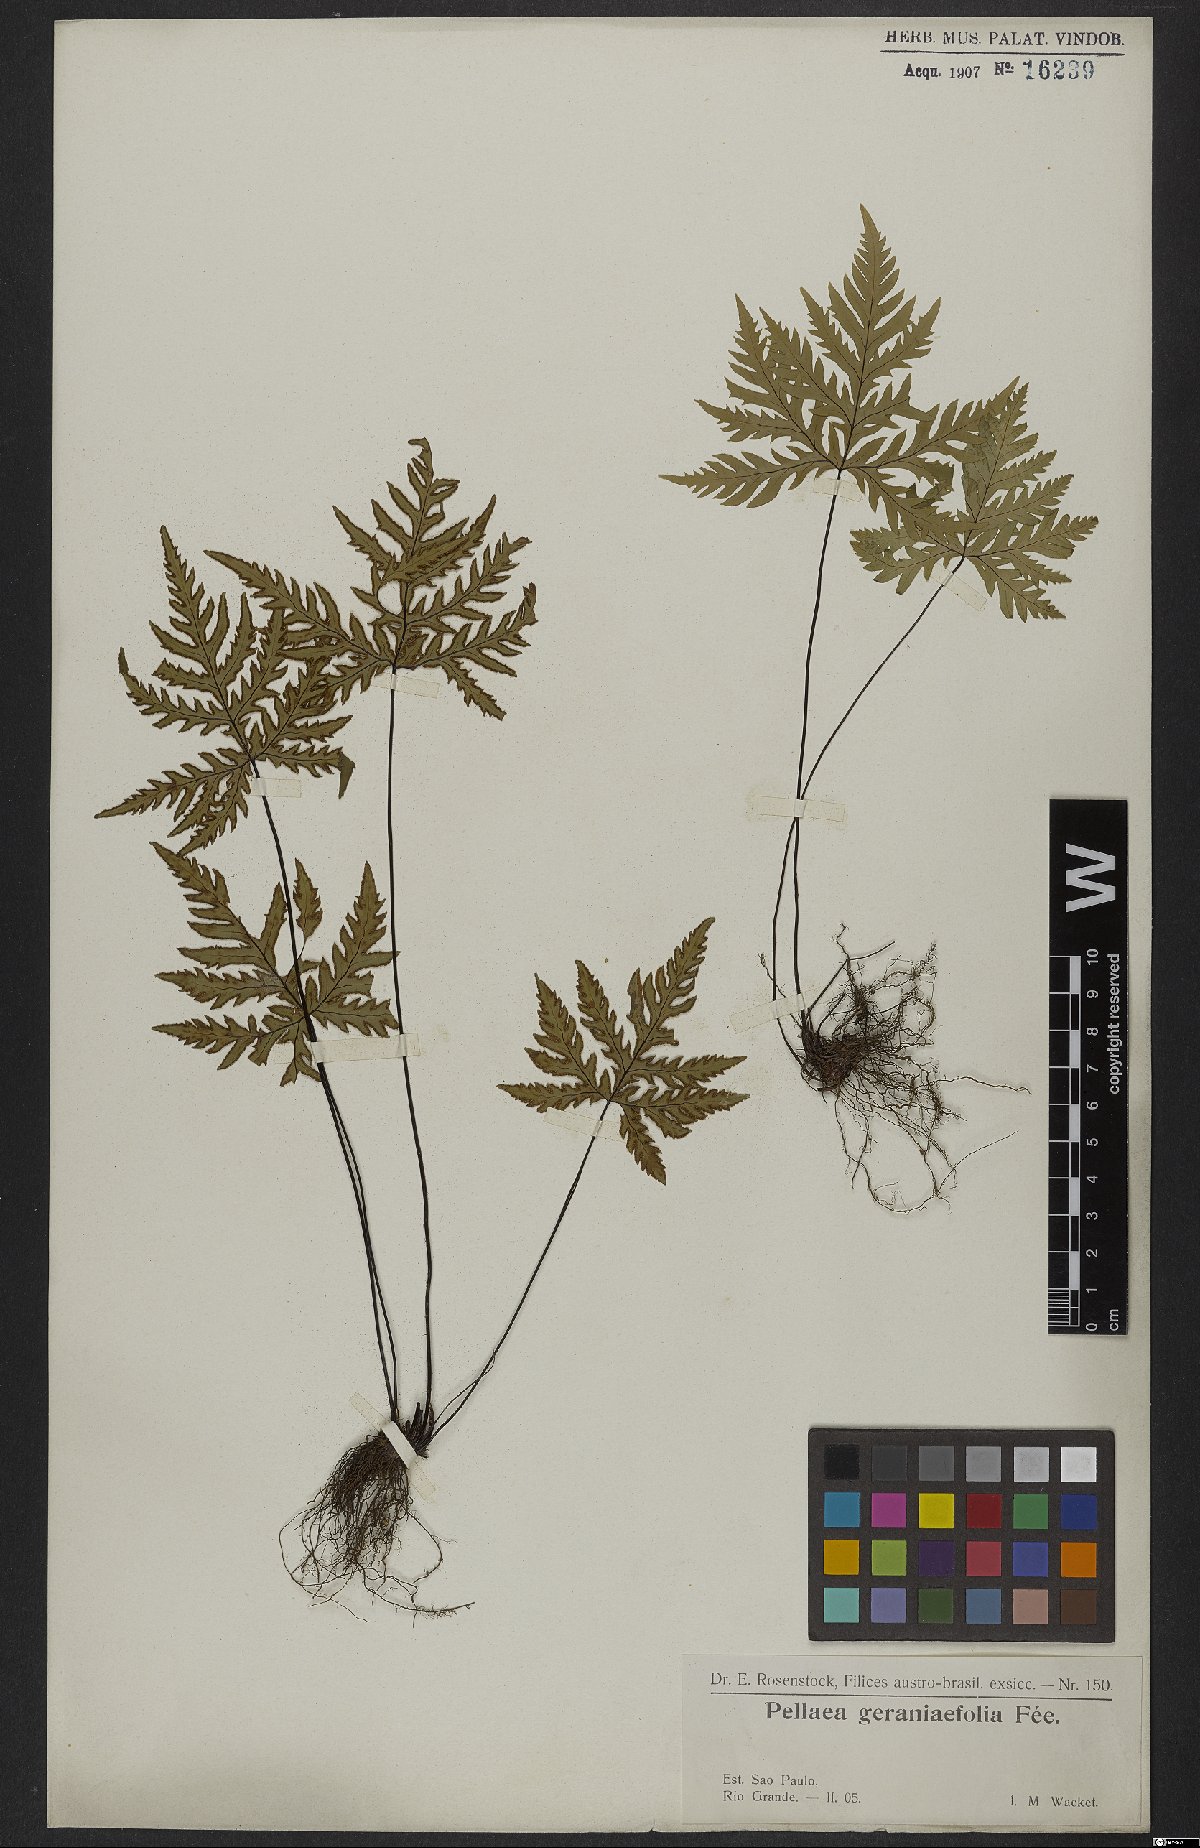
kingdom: Plantae
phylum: Tracheophyta
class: Polypodiopsida
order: Polypodiales
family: Pteridaceae
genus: Doryopteris
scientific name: Doryopteris concolor
